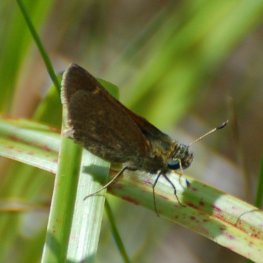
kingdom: Animalia
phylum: Arthropoda
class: Insecta
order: Lepidoptera
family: Hesperiidae
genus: Polites
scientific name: Polites themistocles
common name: Tawny-edged Skipper
